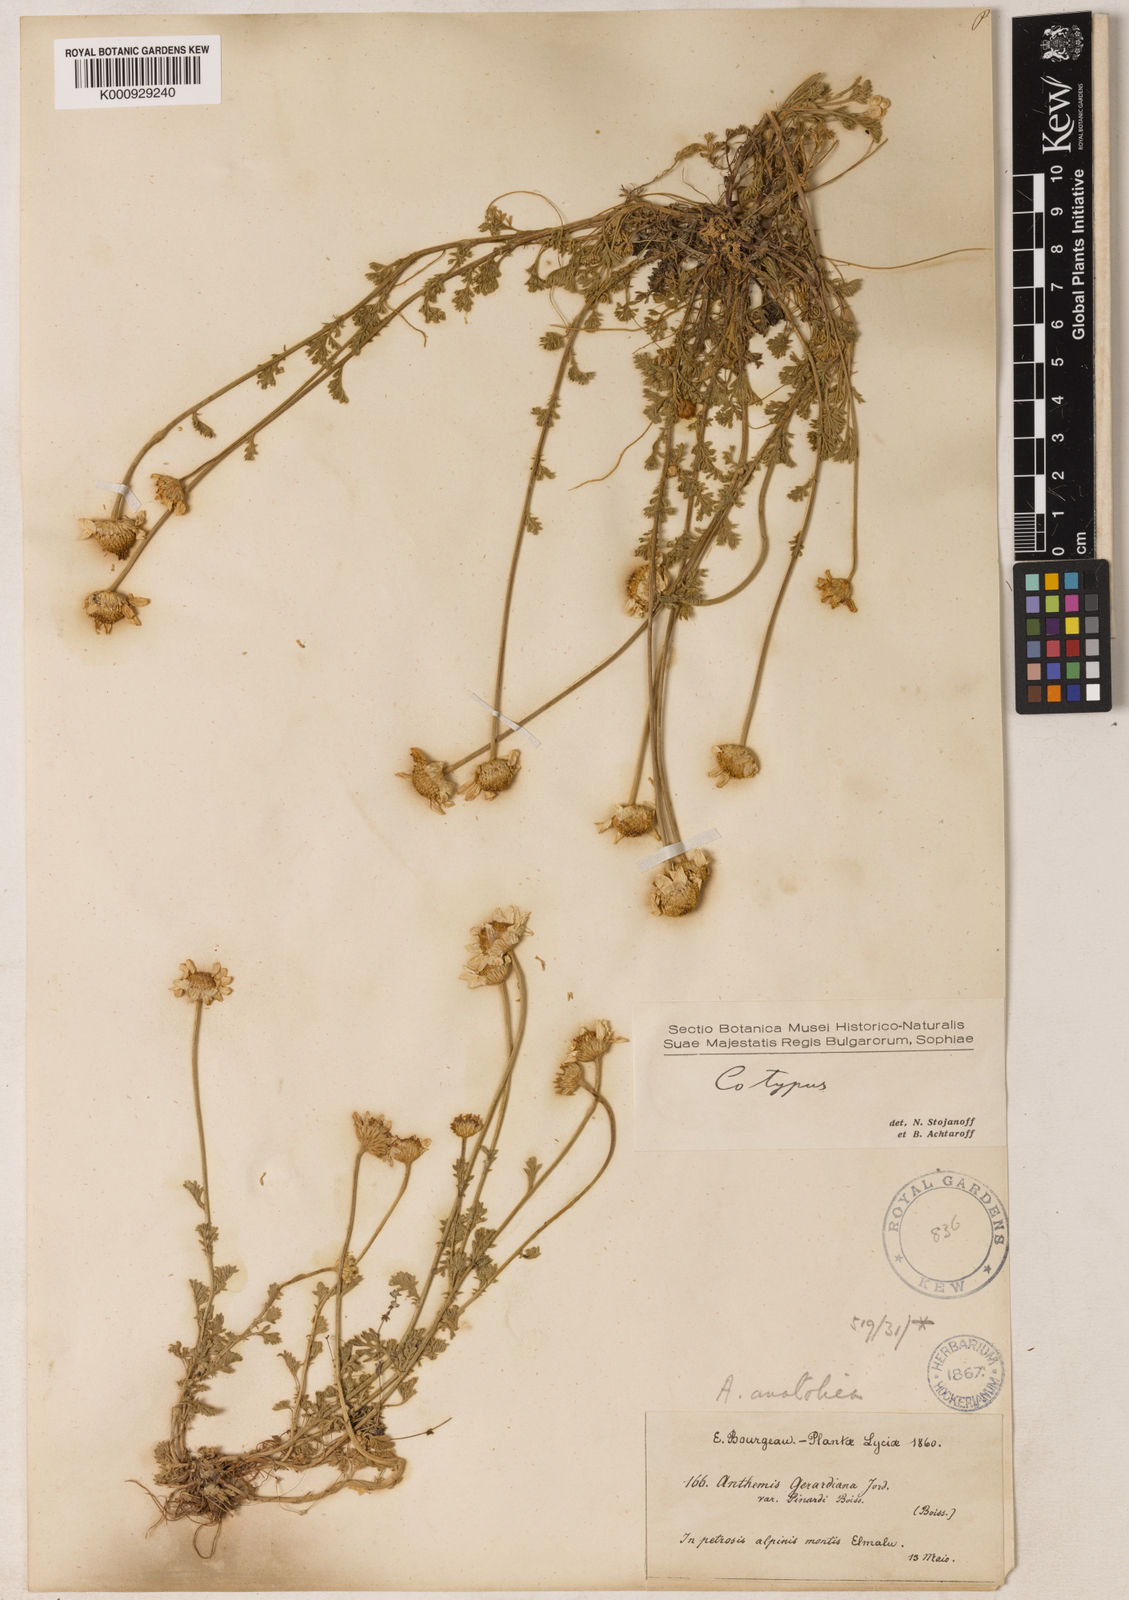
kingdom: Plantae
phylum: Tracheophyta
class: Magnoliopsida
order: Asterales
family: Asteraceae
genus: Anthemis
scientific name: Anthemis cretica
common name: Mountain dog-daisy
